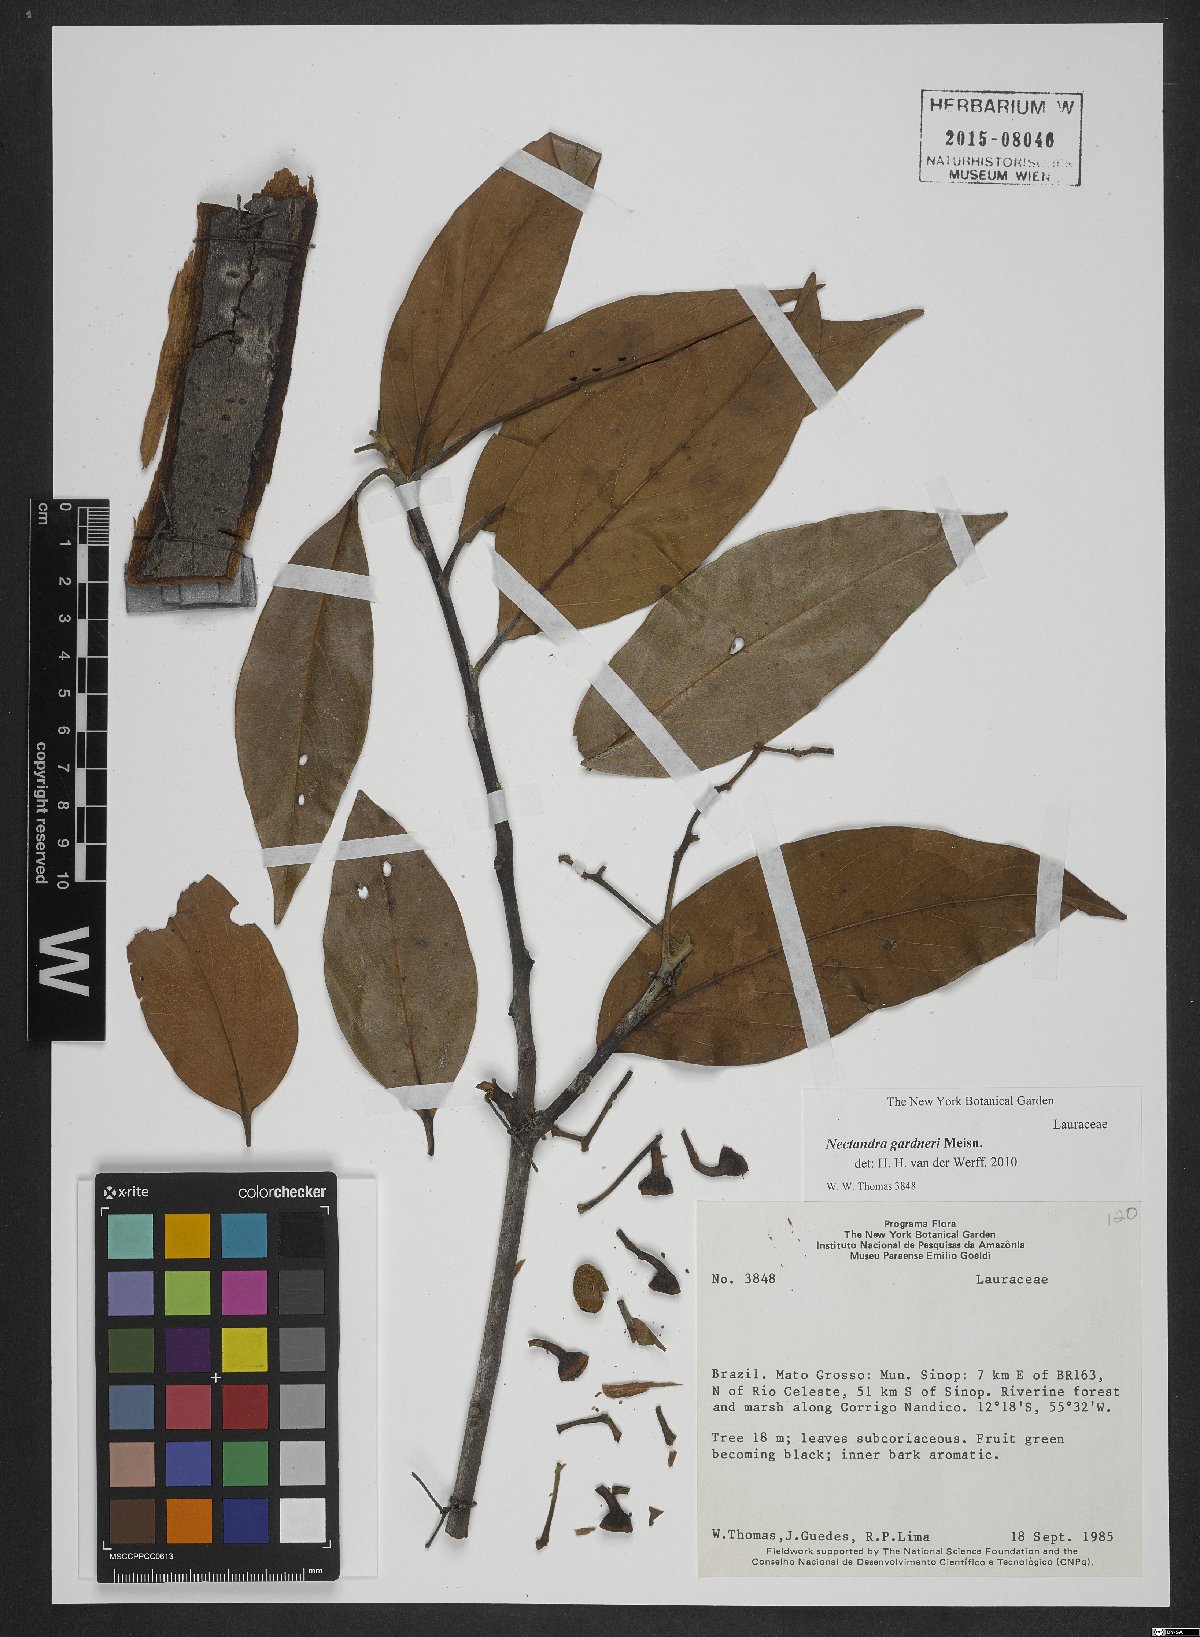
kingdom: Plantae
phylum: Tracheophyta
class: Magnoliopsida
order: Laurales
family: Lauraceae
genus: Nectandra
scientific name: Nectandra gardneri
